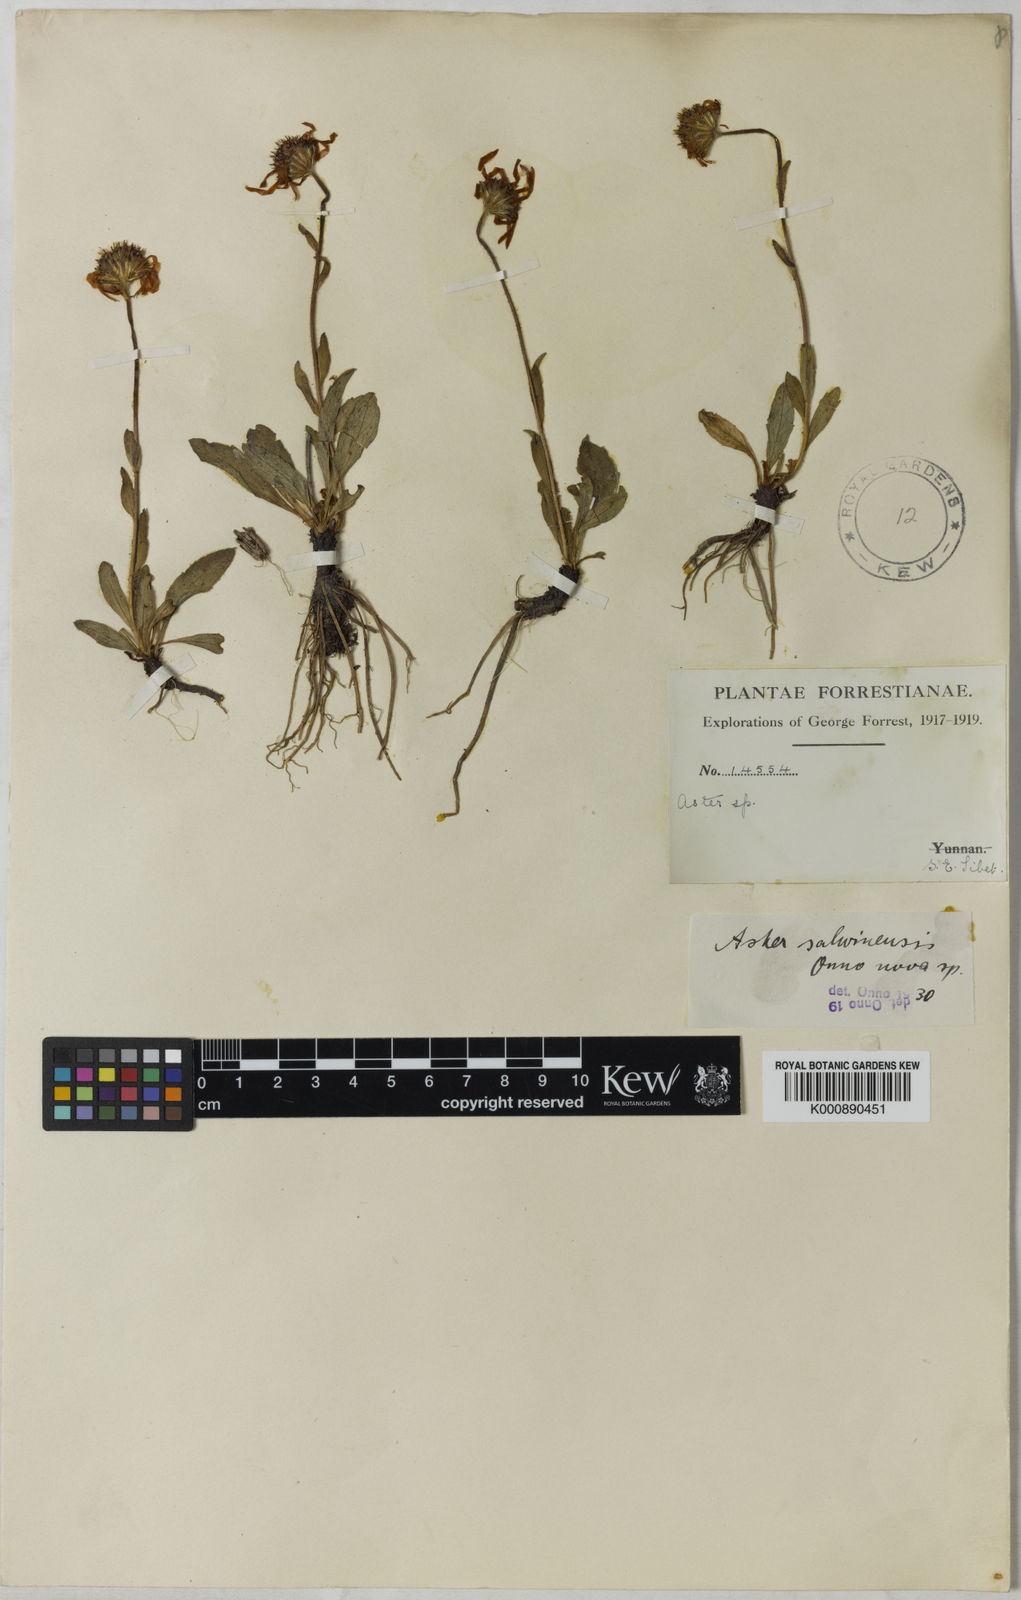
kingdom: Plantae
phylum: Tracheophyta
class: Magnoliopsida
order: Asterales
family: Asteraceae
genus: Tibetiodes
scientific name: Tibetiodes salwinensis
